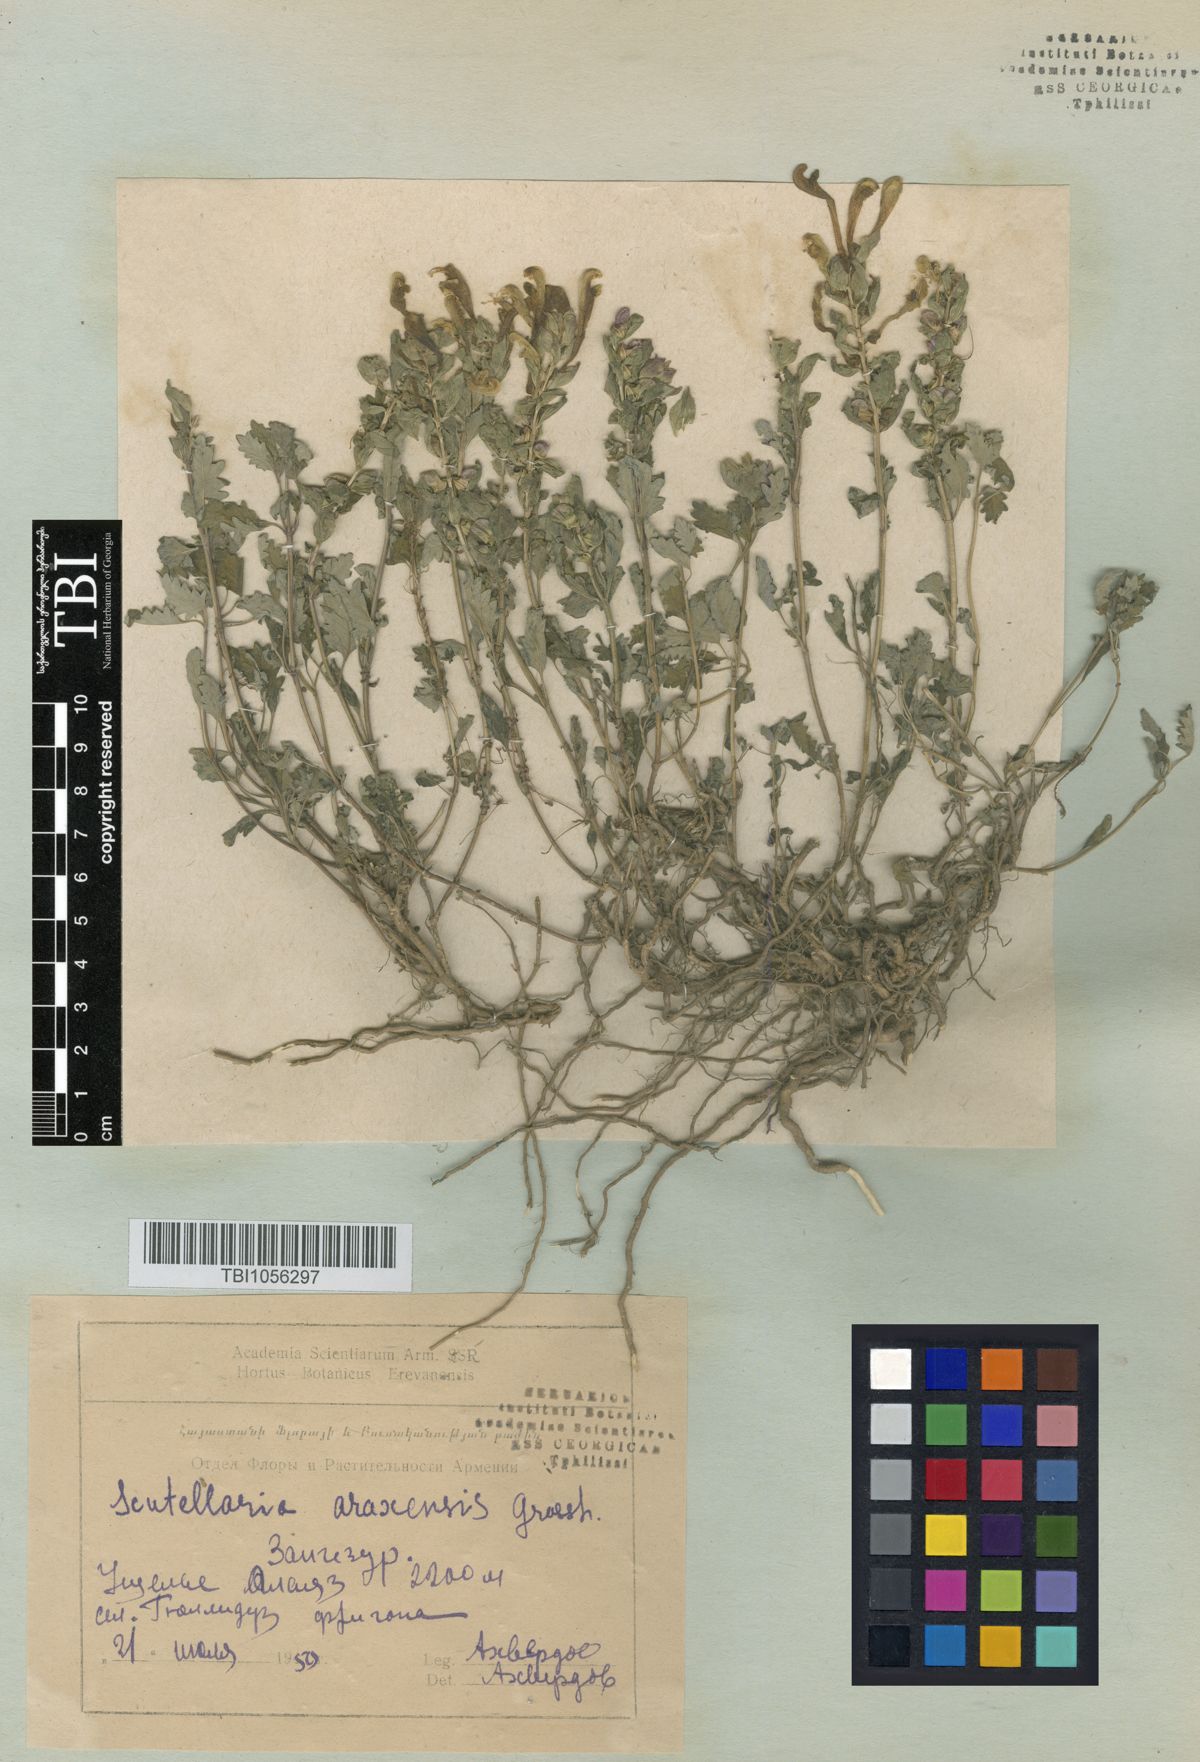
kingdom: Plantae
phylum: Tracheophyta
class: Magnoliopsida
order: Lamiales
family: Lamiaceae
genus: Scutellaria
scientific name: Scutellaria araxensis
